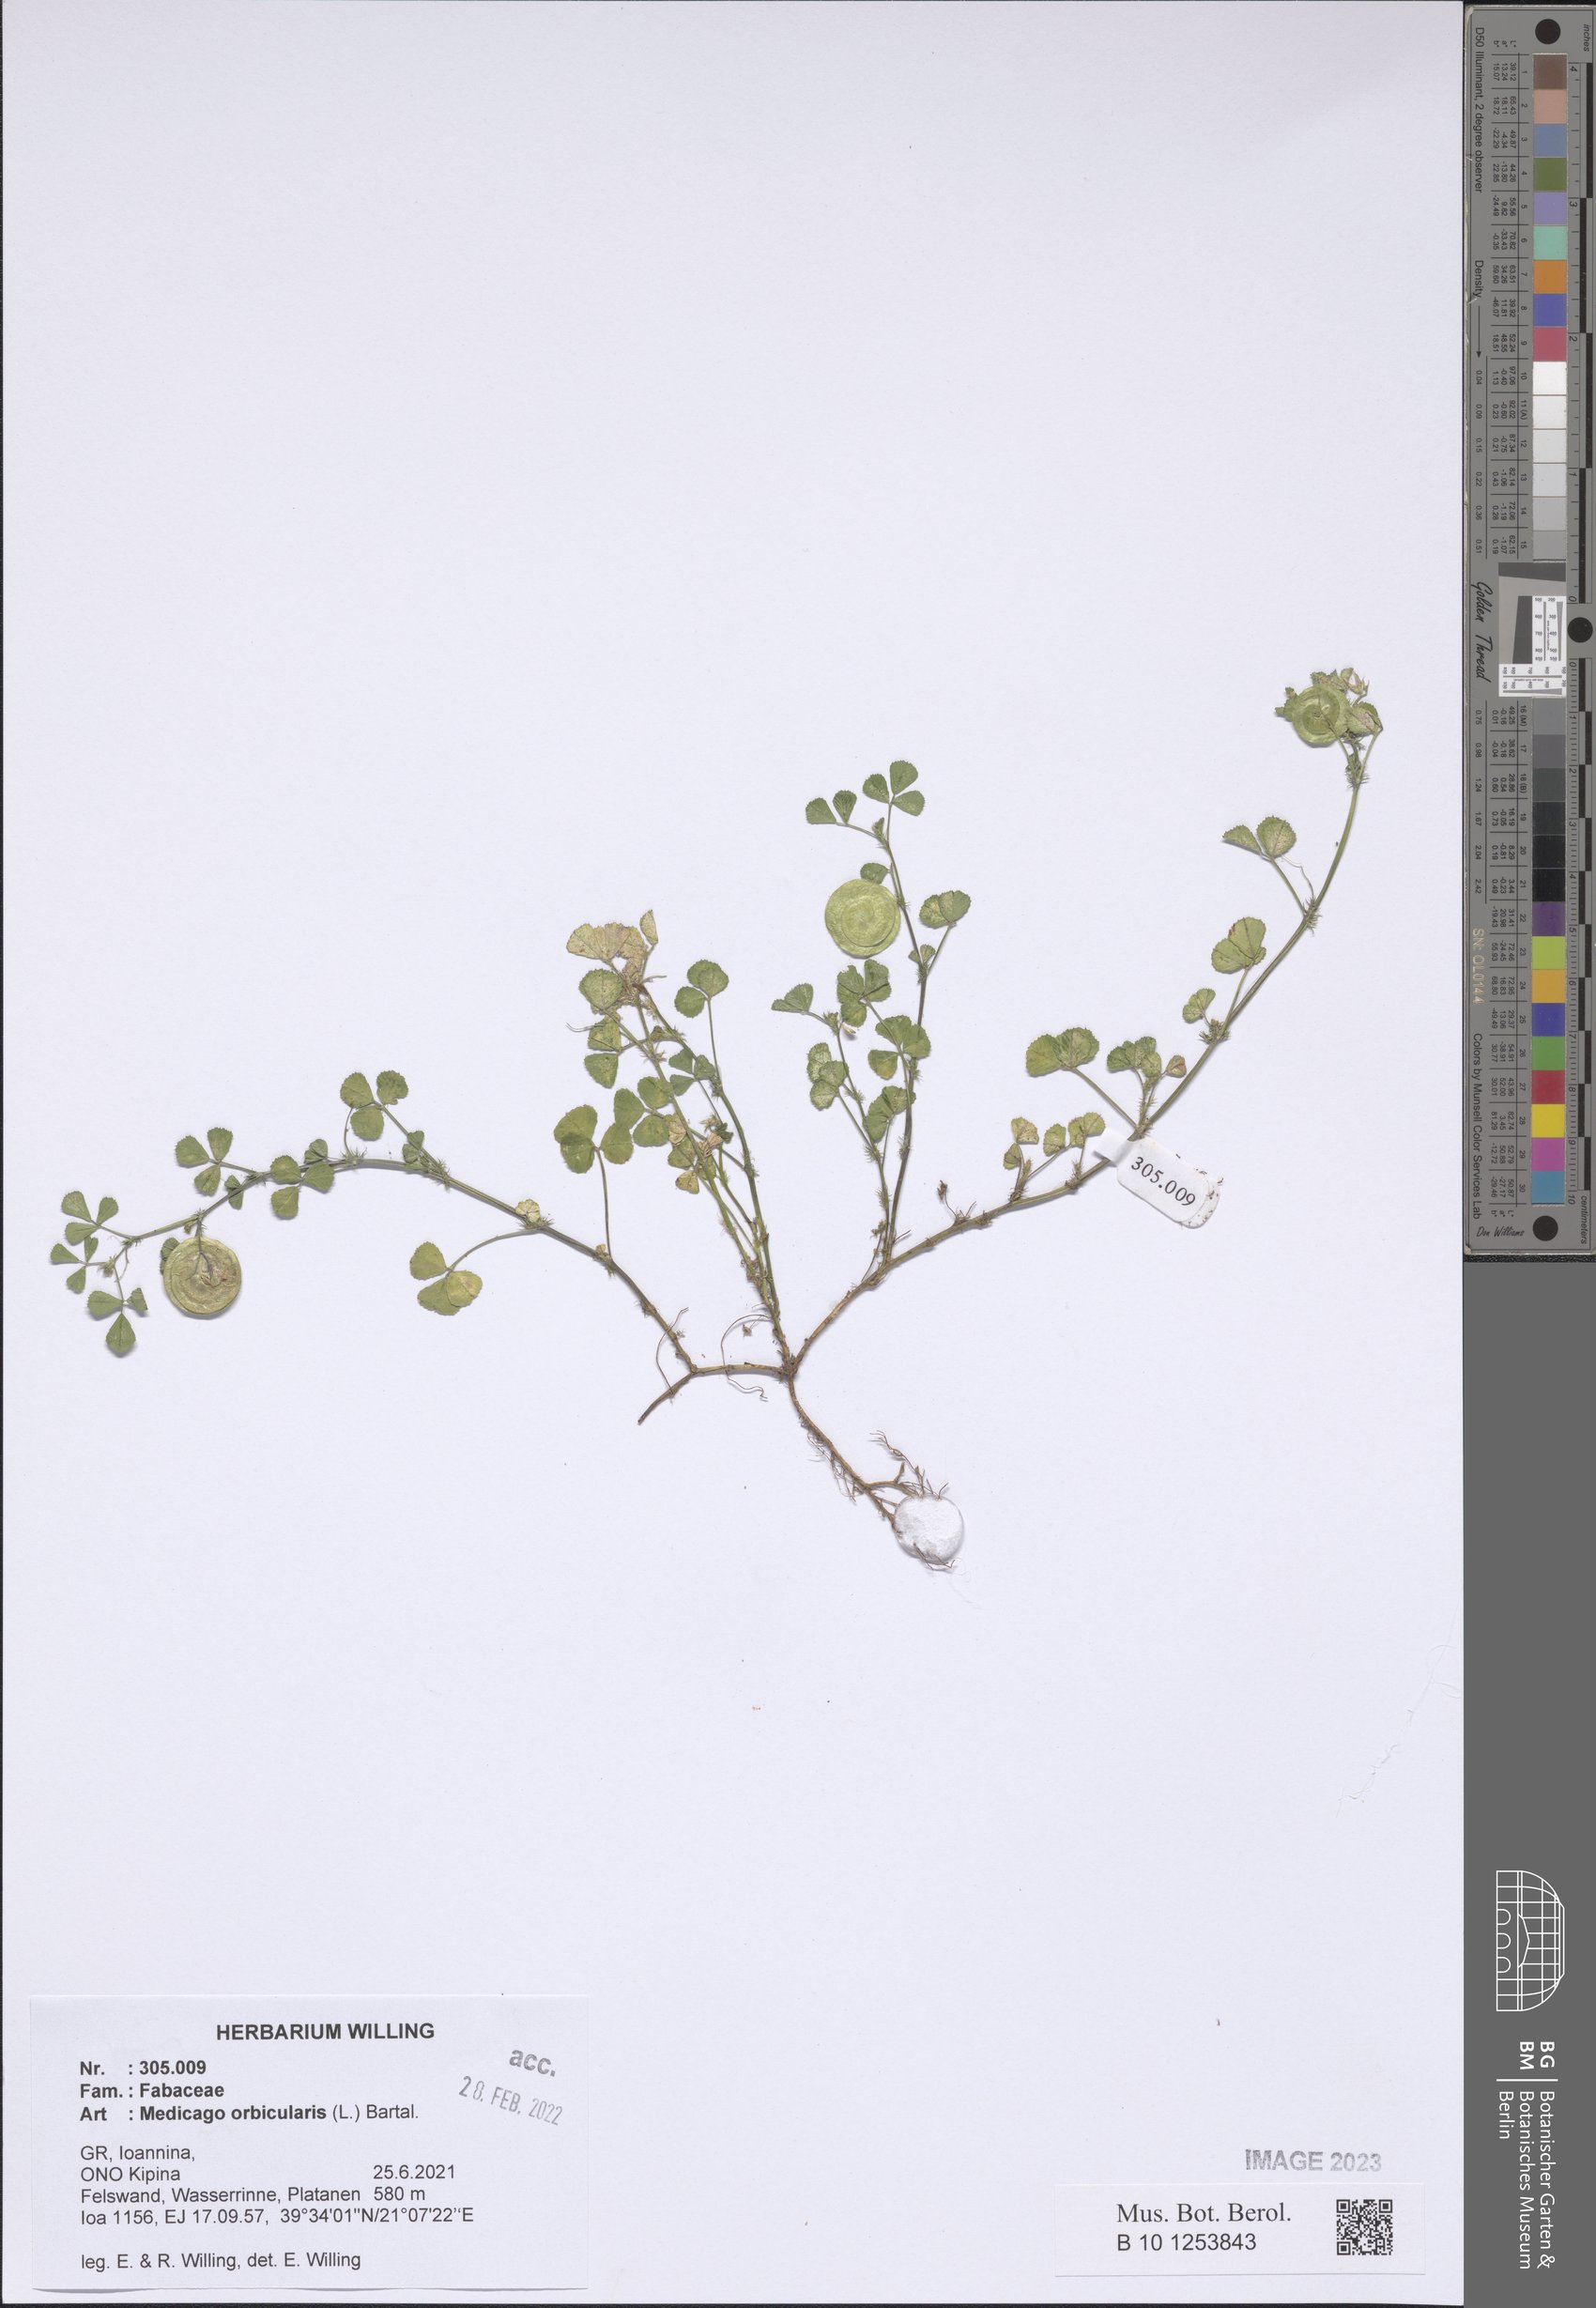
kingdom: Plantae
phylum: Tracheophyta
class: Magnoliopsida
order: Fabales
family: Fabaceae
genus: Medicago
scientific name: Medicago orbicularis
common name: Button medick
